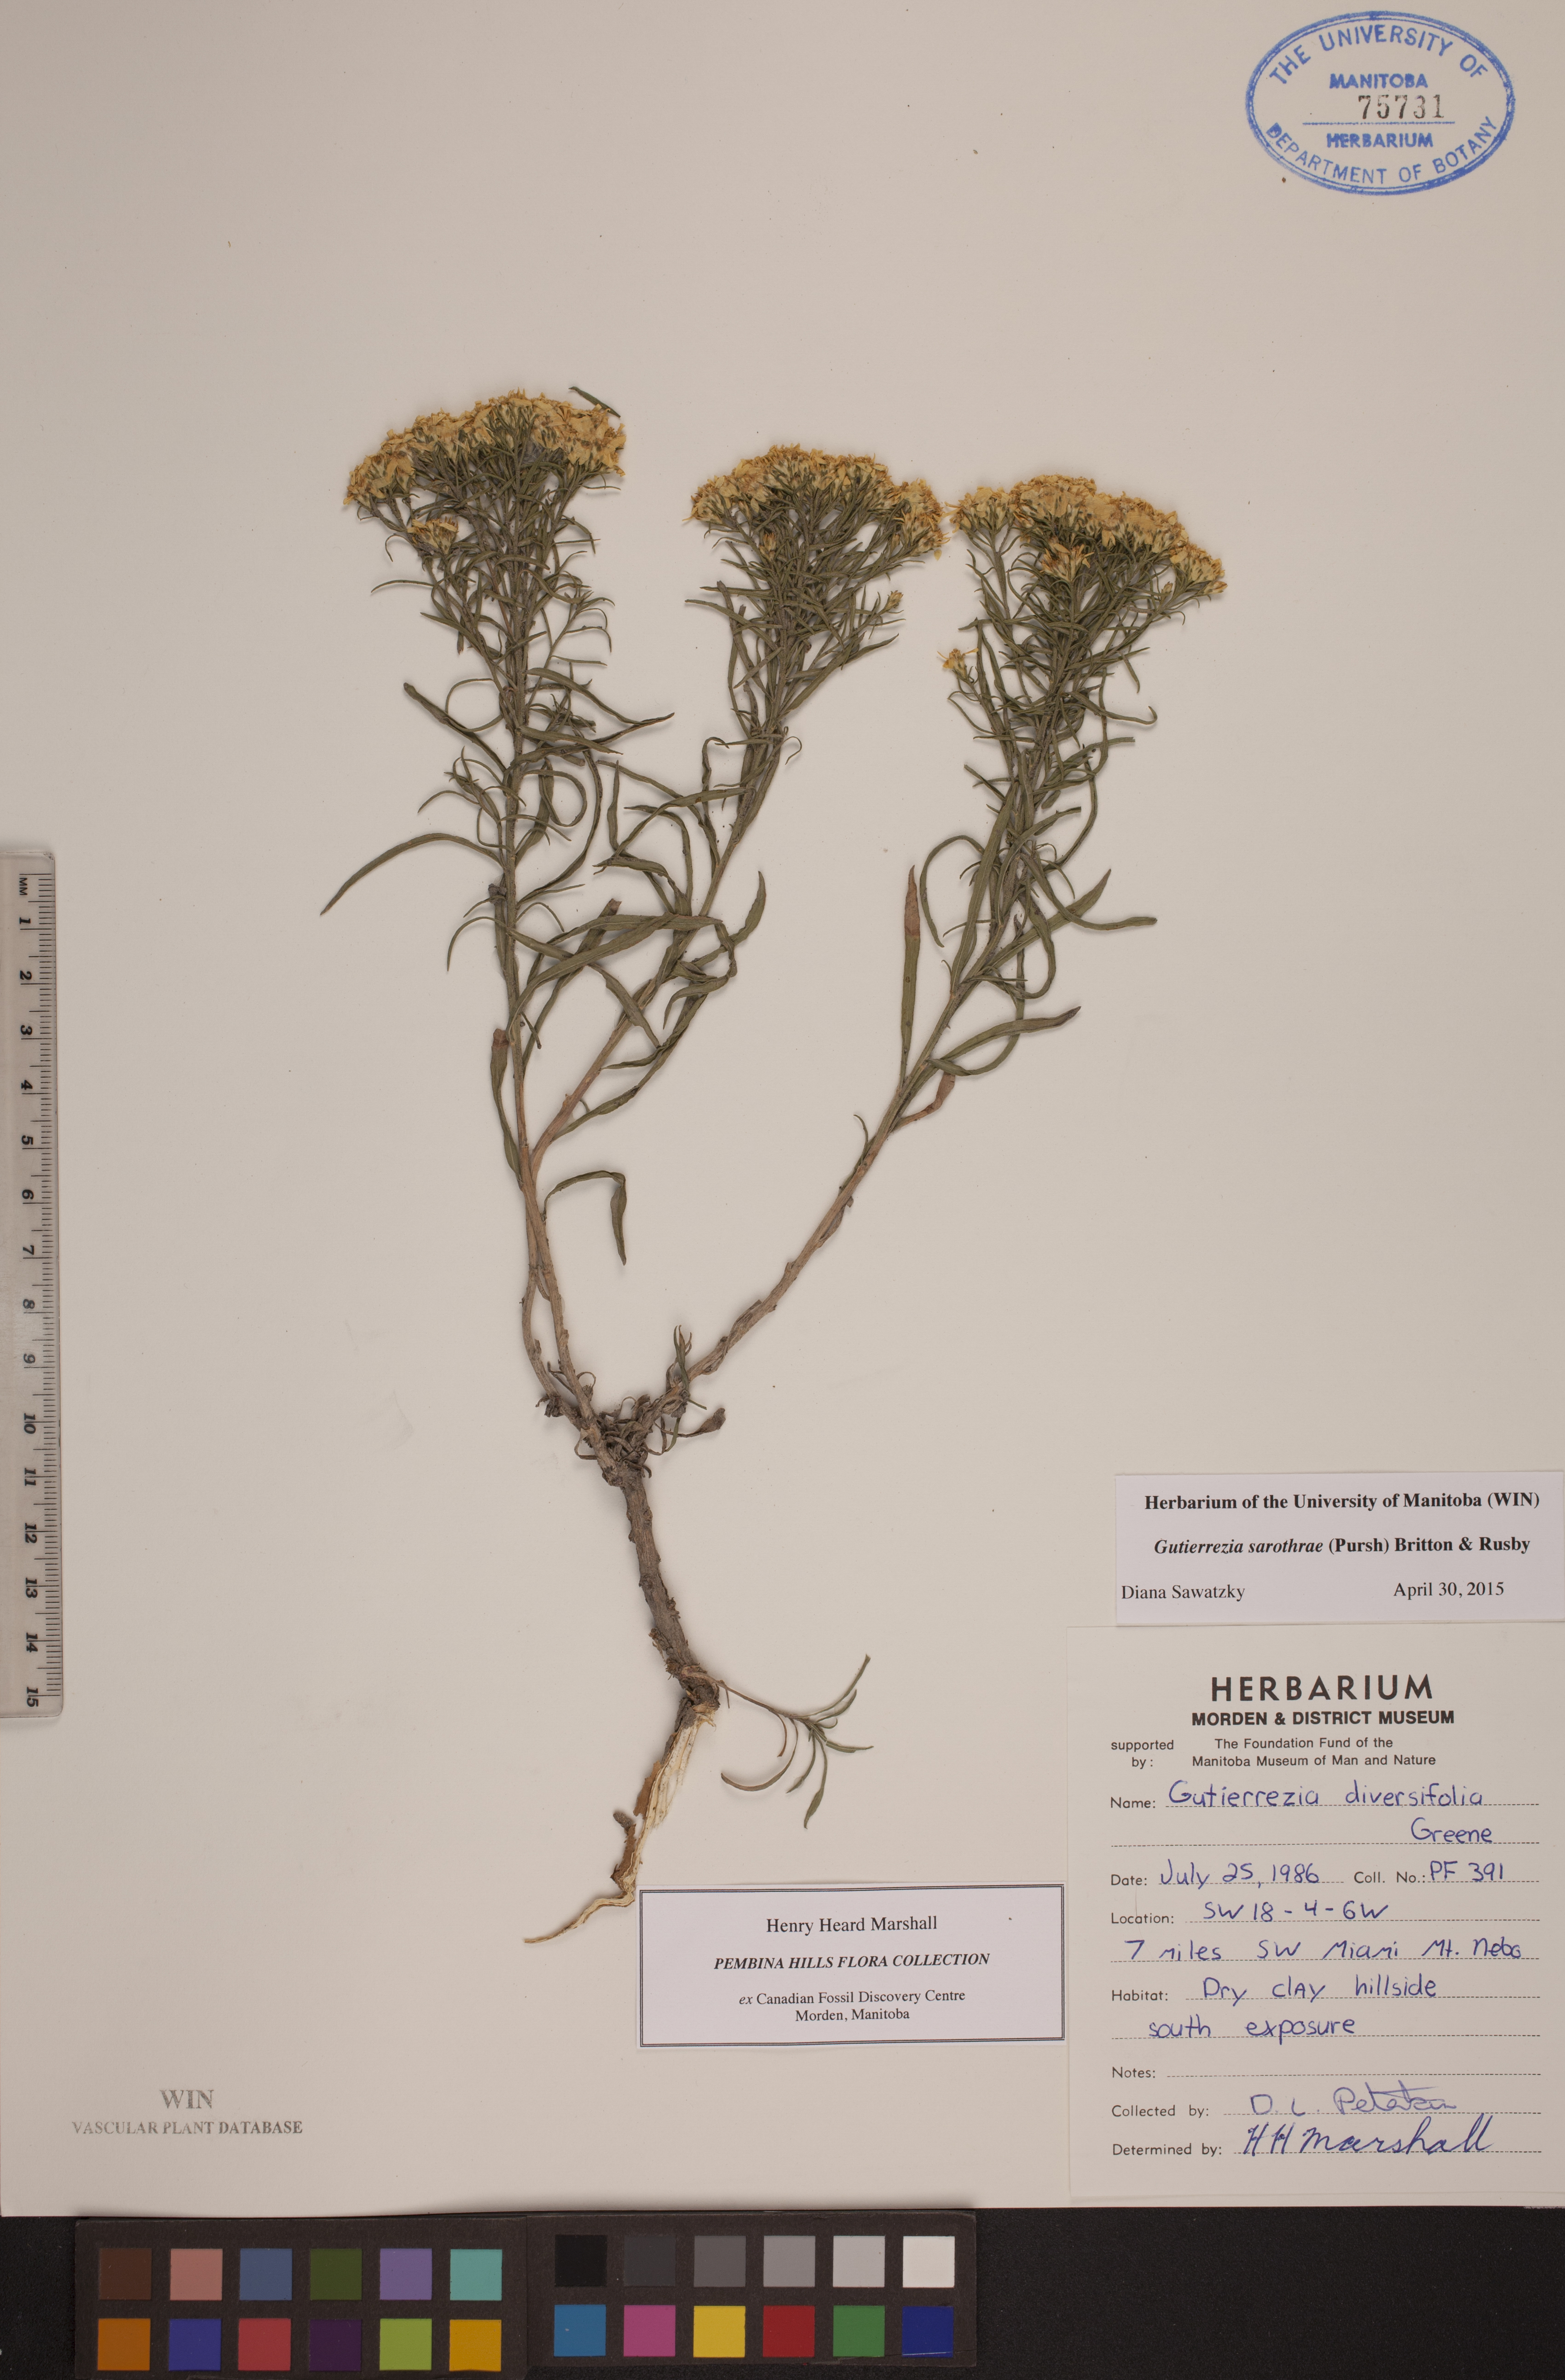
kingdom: Plantae
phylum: Tracheophyta
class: Magnoliopsida
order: Asterales
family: Asteraceae
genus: Gutierrezia
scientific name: Gutierrezia sarothrae
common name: Broom snakeweed
